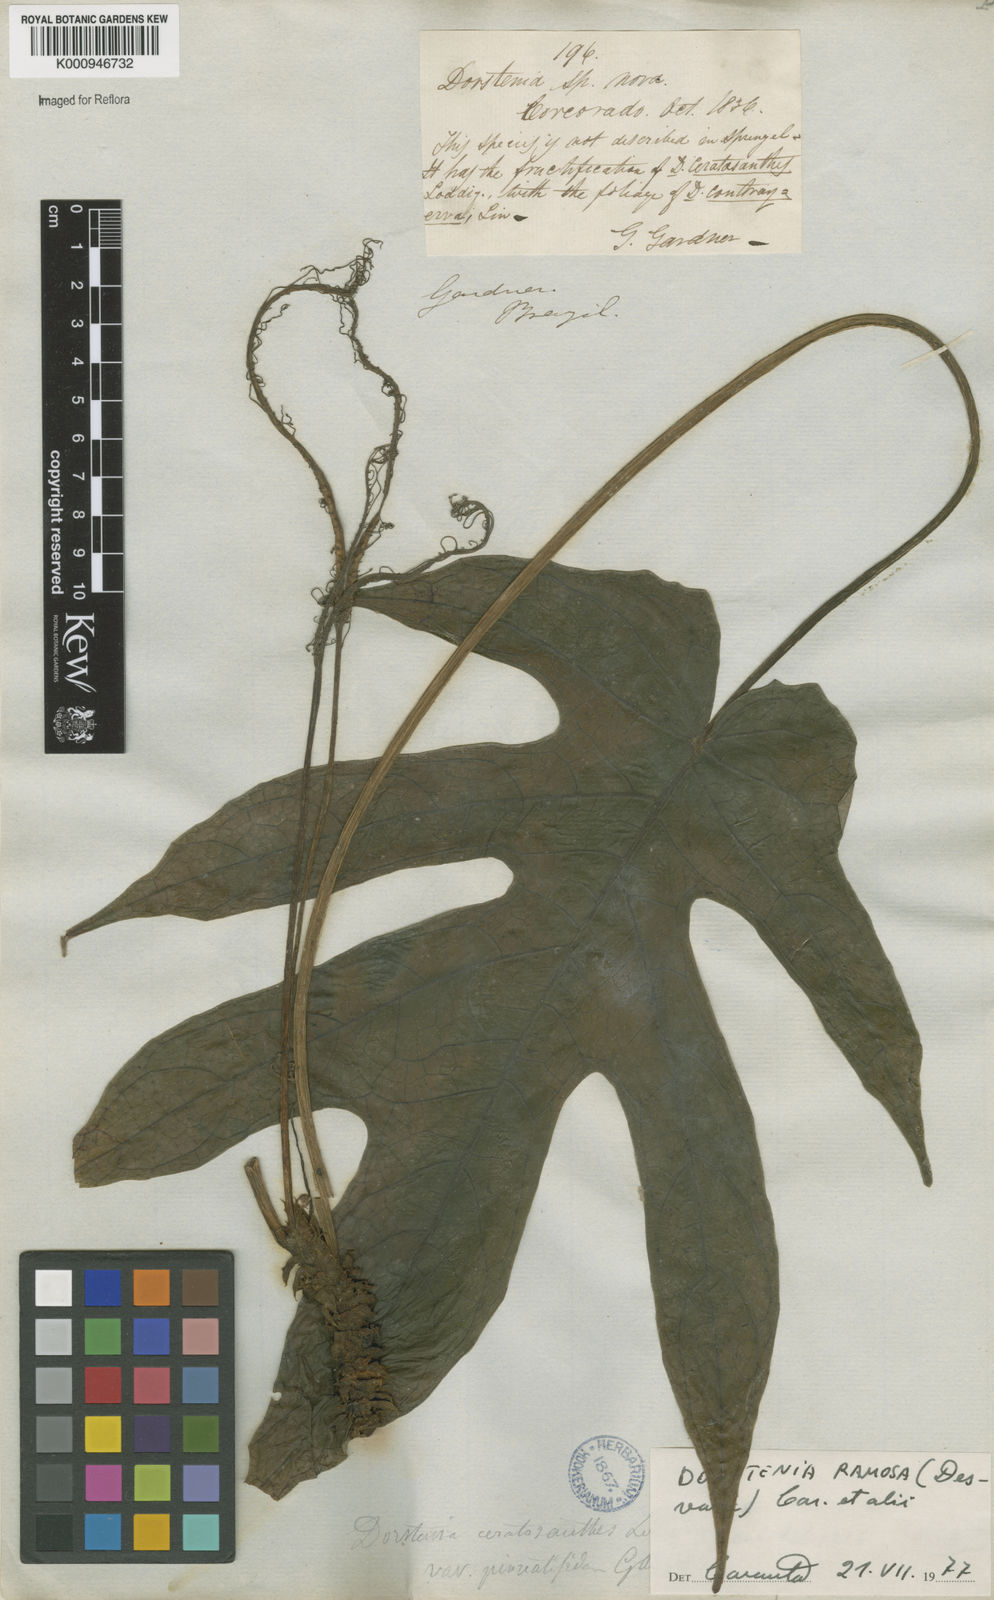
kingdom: Plantae
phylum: Tracheophyta
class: Magnoliopsida
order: Rosales
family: Moraceae
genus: Dorstenia
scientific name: Dorstenia ramosa
